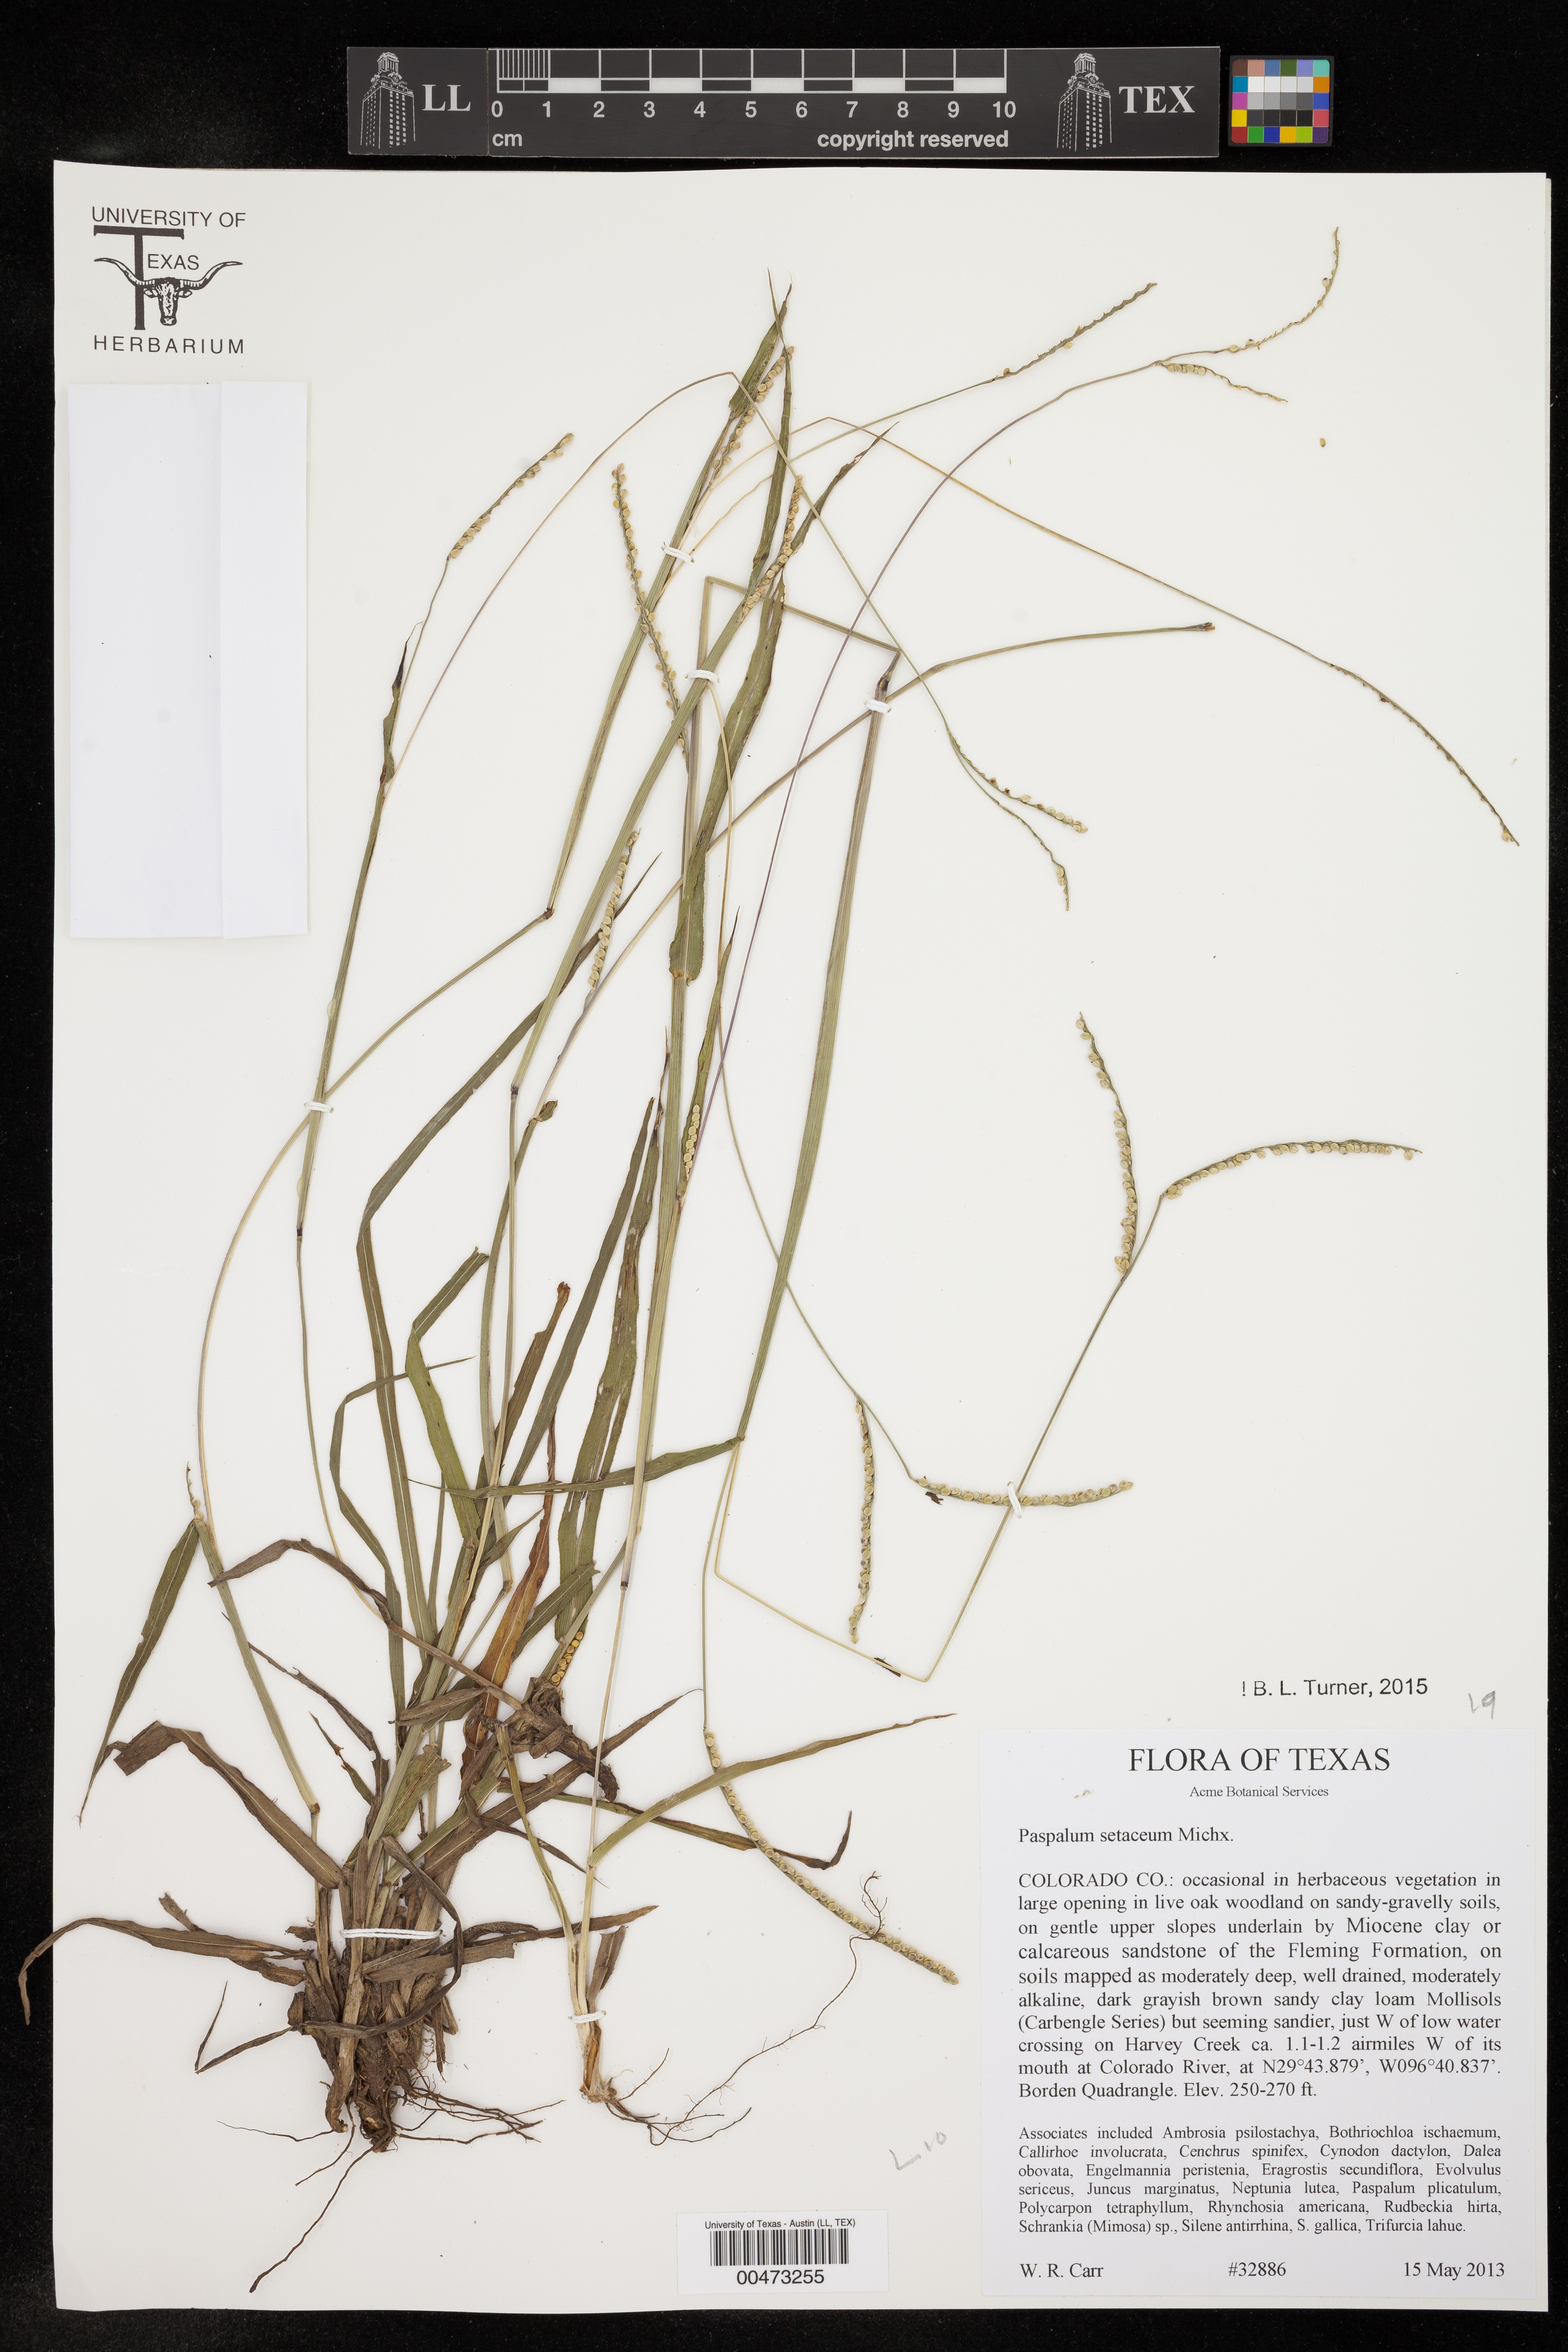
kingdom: Plantae
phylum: Tracheophyta
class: Liliopsida
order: Poales
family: Poaceae
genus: Paspalum
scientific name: Paspalum setaceum
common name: Slender paspalum
